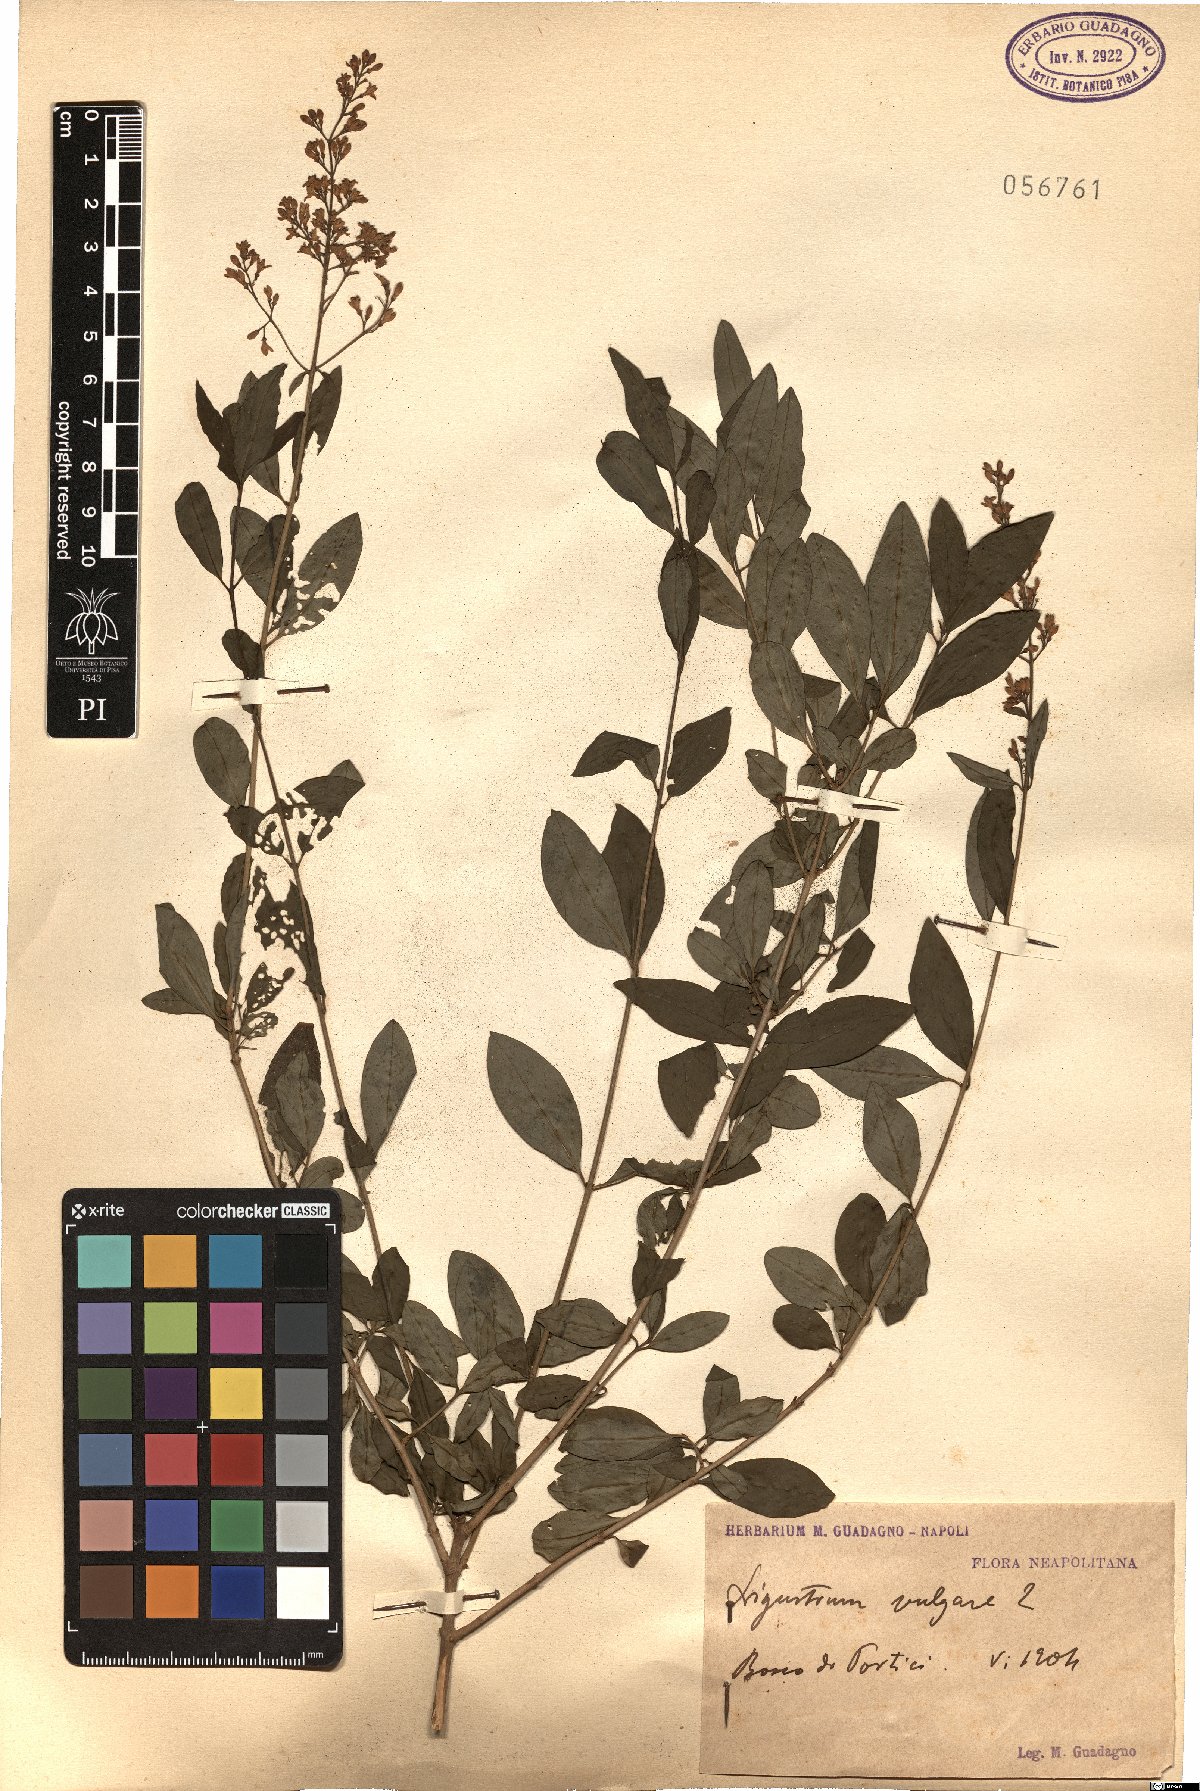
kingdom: Plantae
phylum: Tracheophyta
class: Magnoliopsida
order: Lamiales
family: Oleaceae
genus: Ligustrum
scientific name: Ligustrum vulgare
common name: Wild privet
